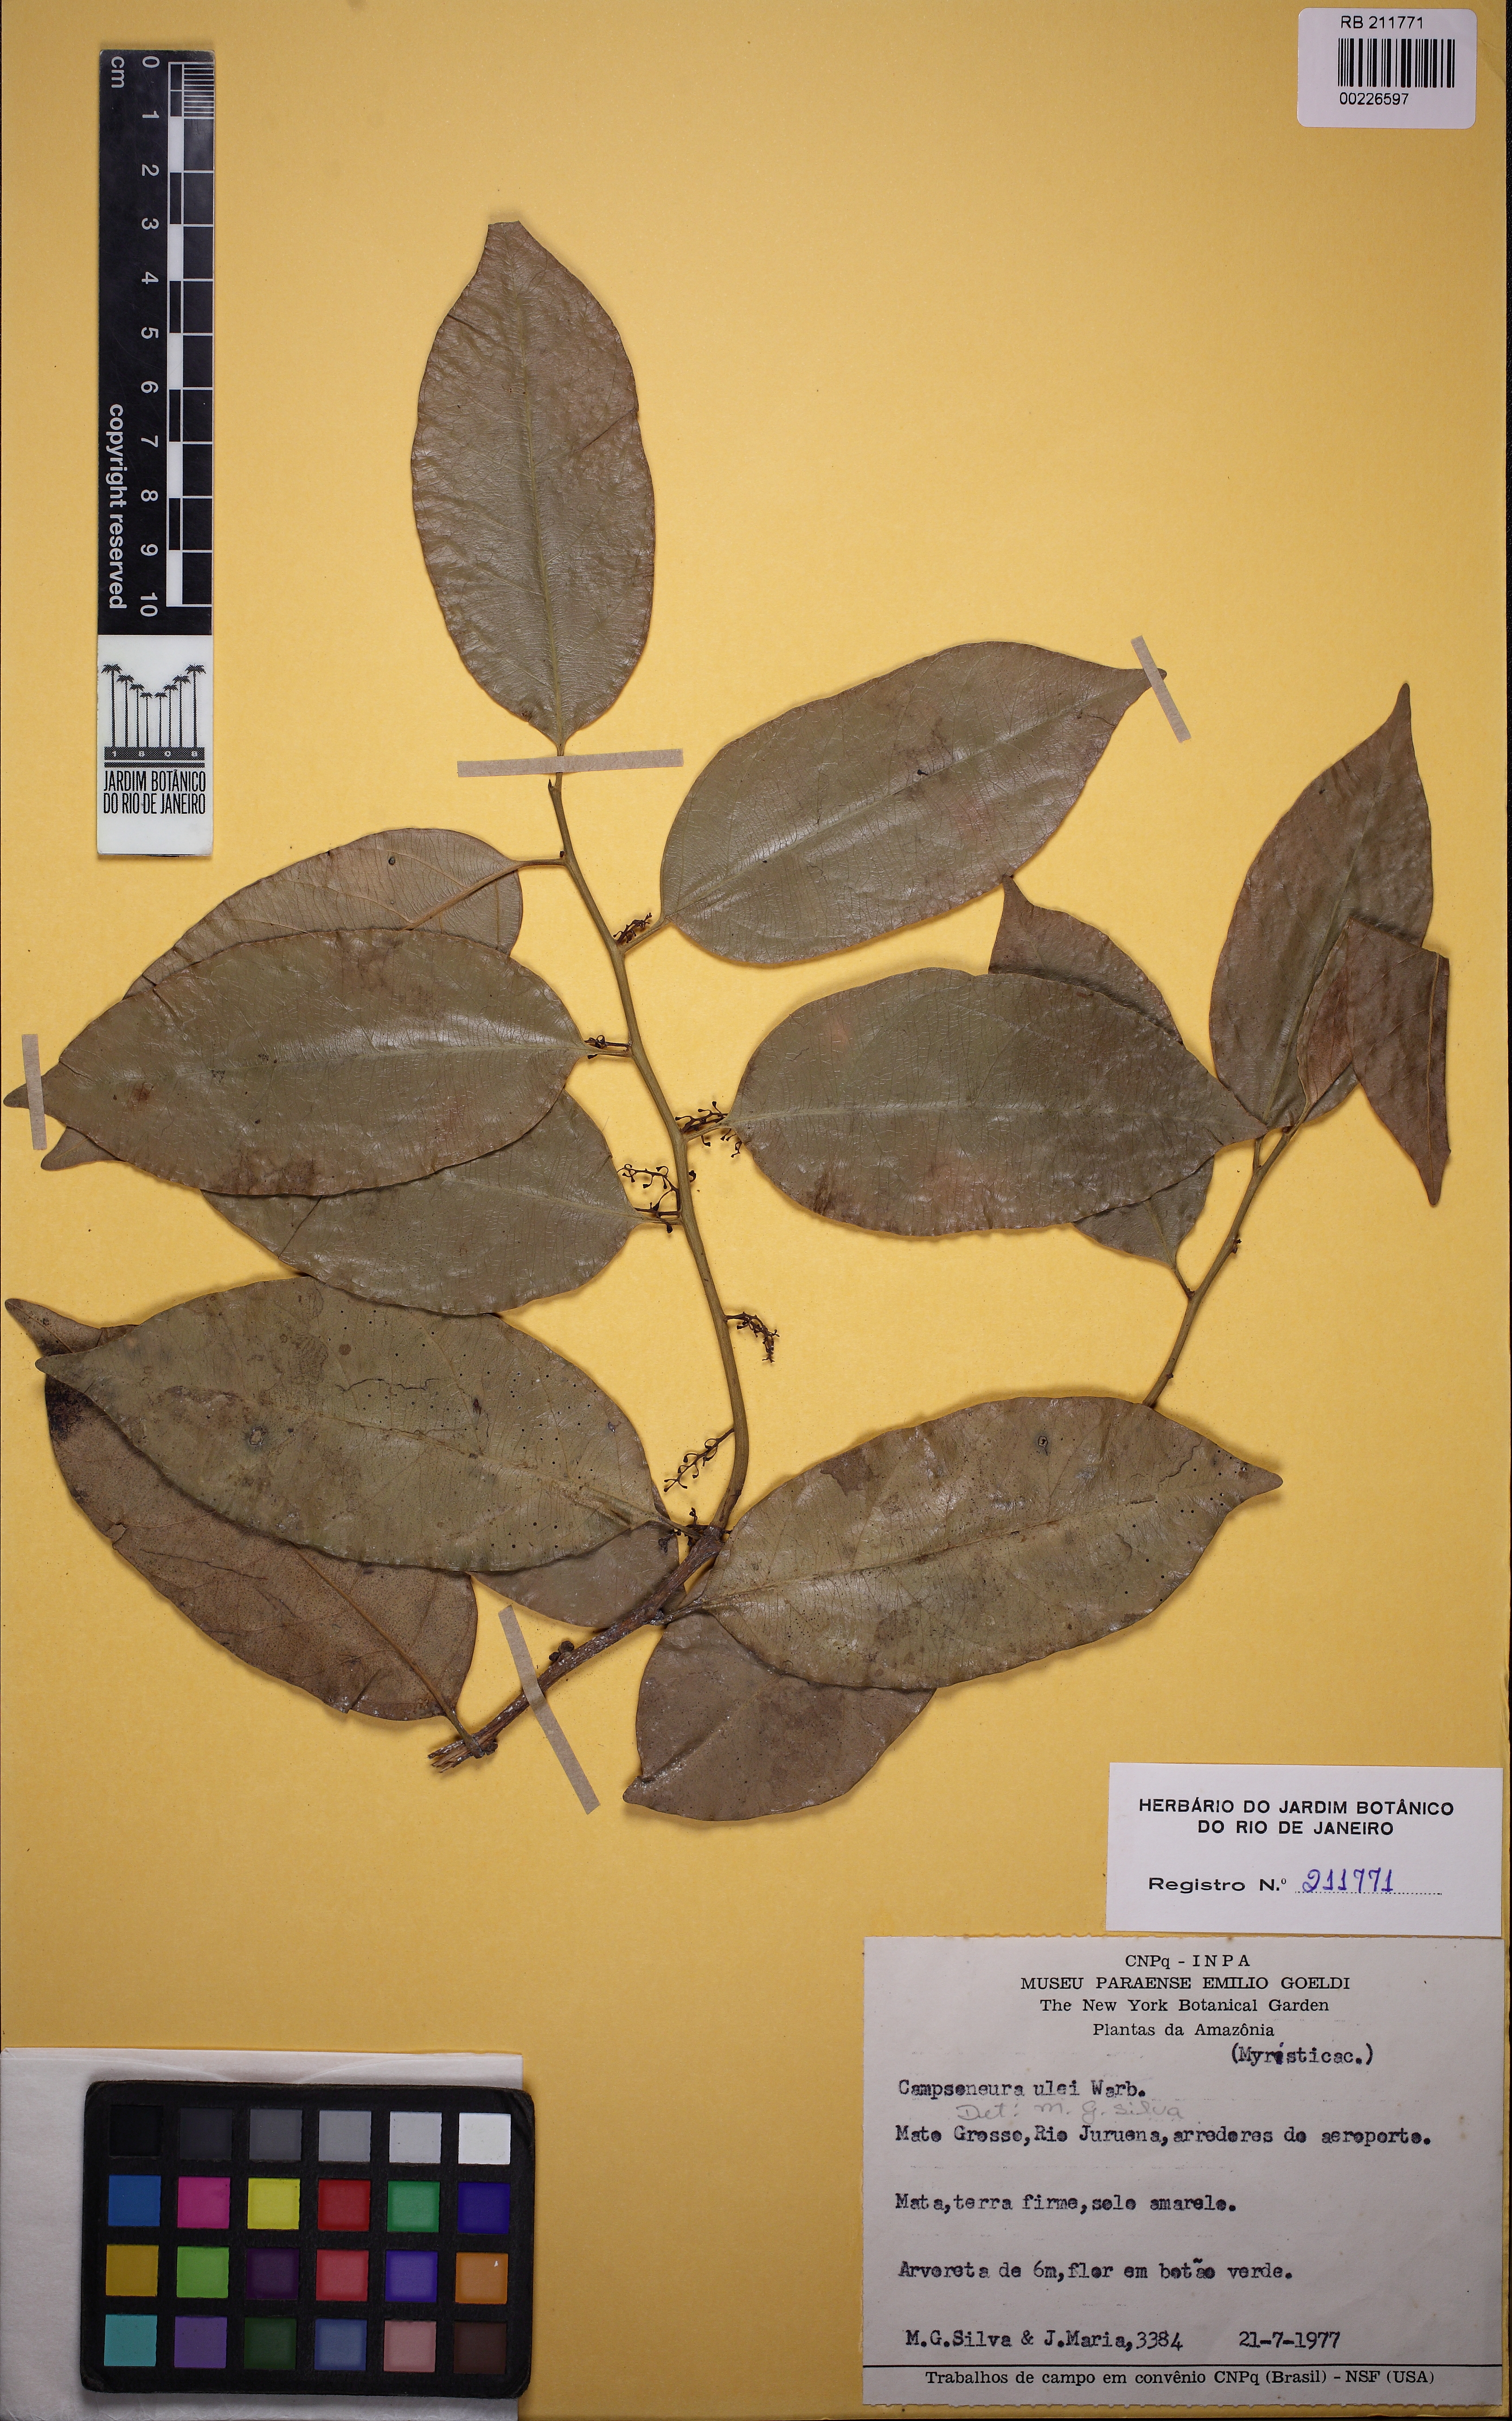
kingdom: Plantae
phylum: Tracheophyta
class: Magnoliopsida
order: Magnoliales
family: Myristicaceae
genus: Compsoneura
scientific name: Compsoneura ulei
